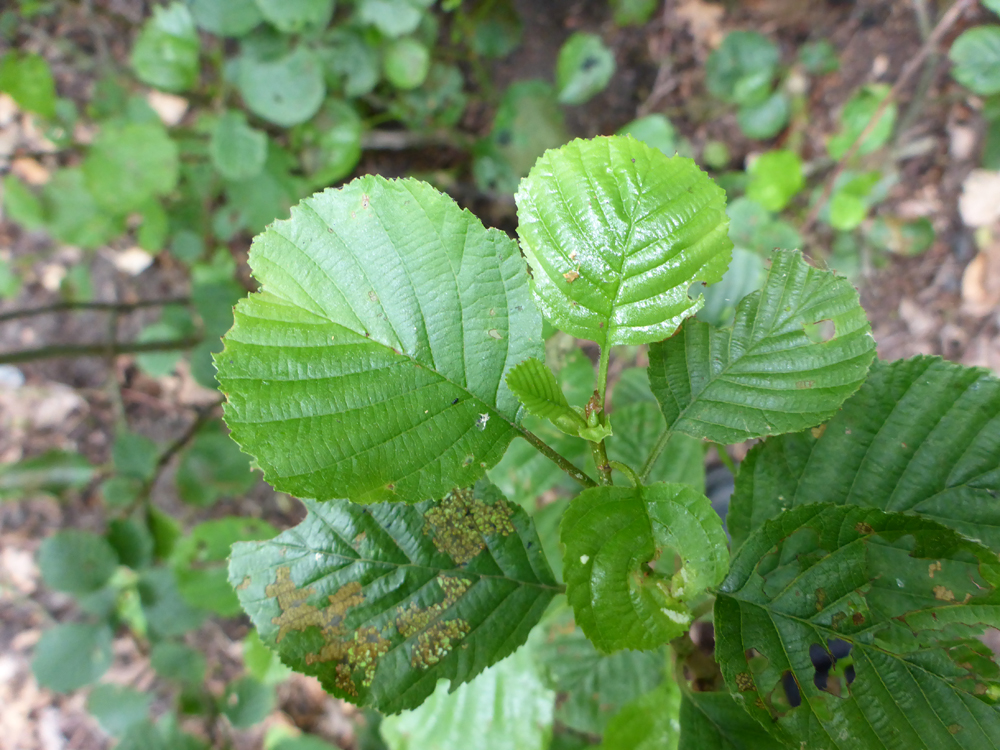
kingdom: Plantae
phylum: Tracheophyta
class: Magnoliopsida
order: Fagales
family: Betulaceae
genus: Alnus
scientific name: Alnus glutinosa
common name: Black alder
